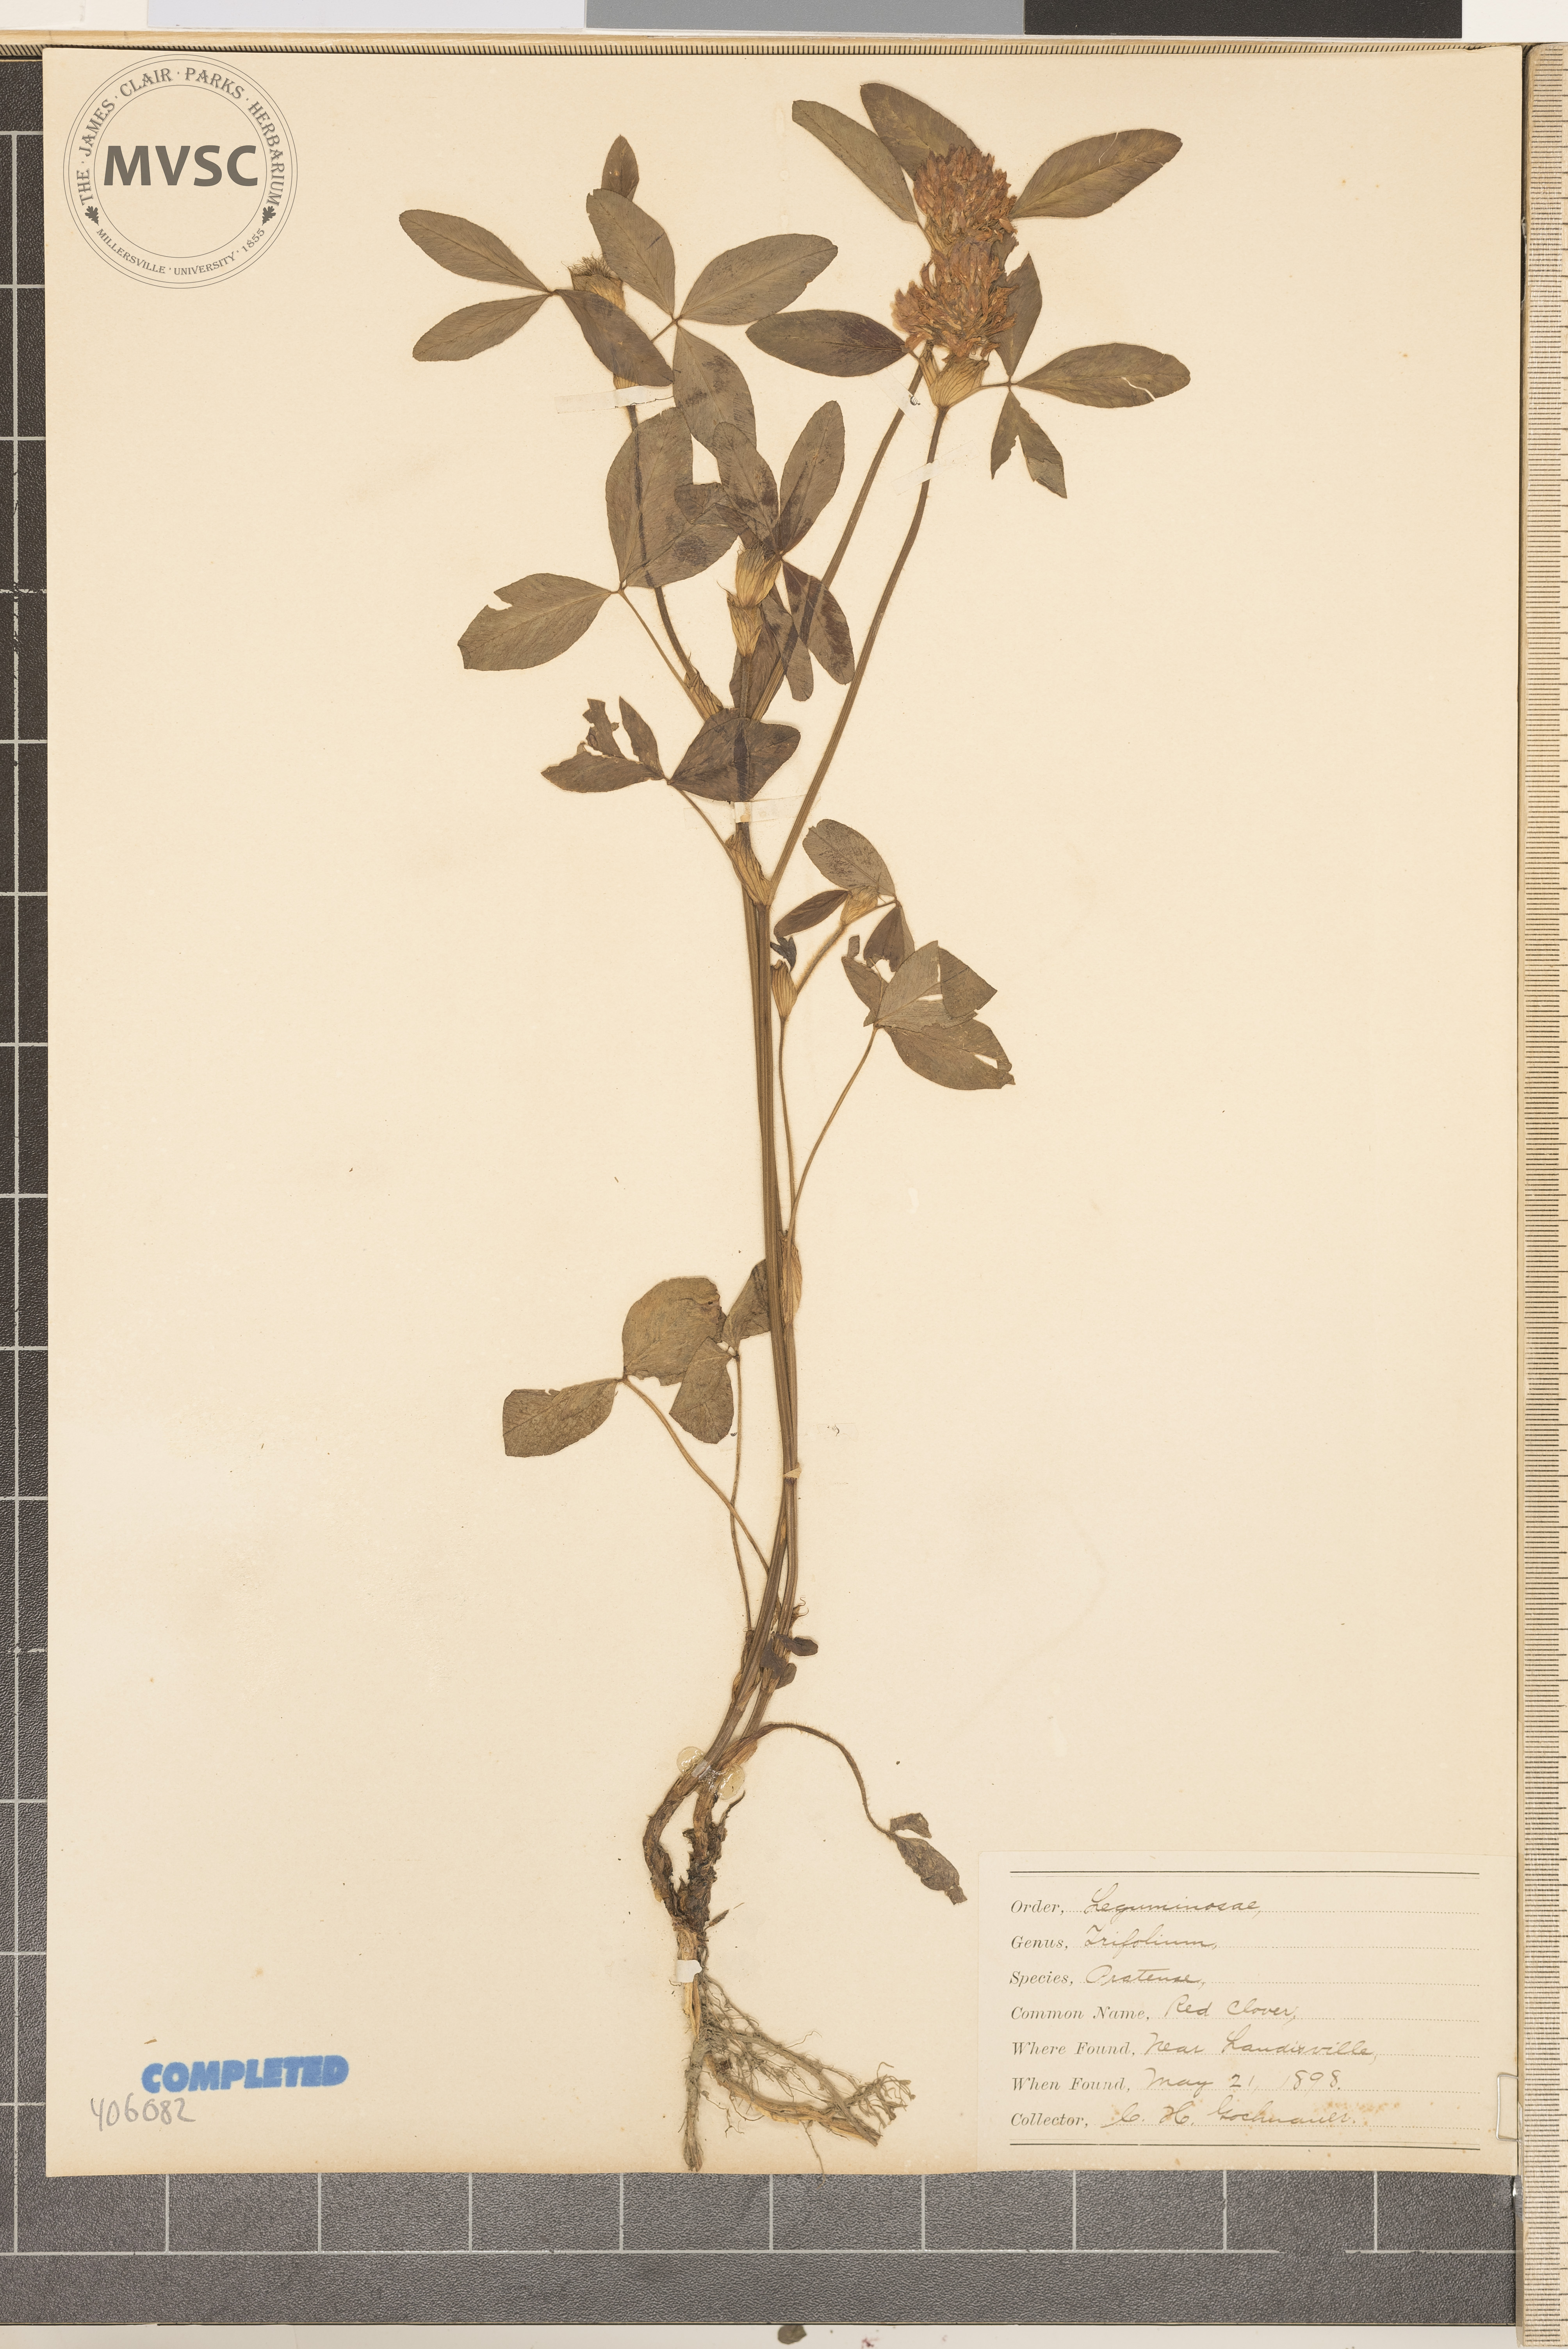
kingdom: Plantae
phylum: Tracheophyta
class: Magnoliopsida
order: Fabales
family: Fabaceae
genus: Trifolium
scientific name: Trifolium pratense
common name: Red clover
